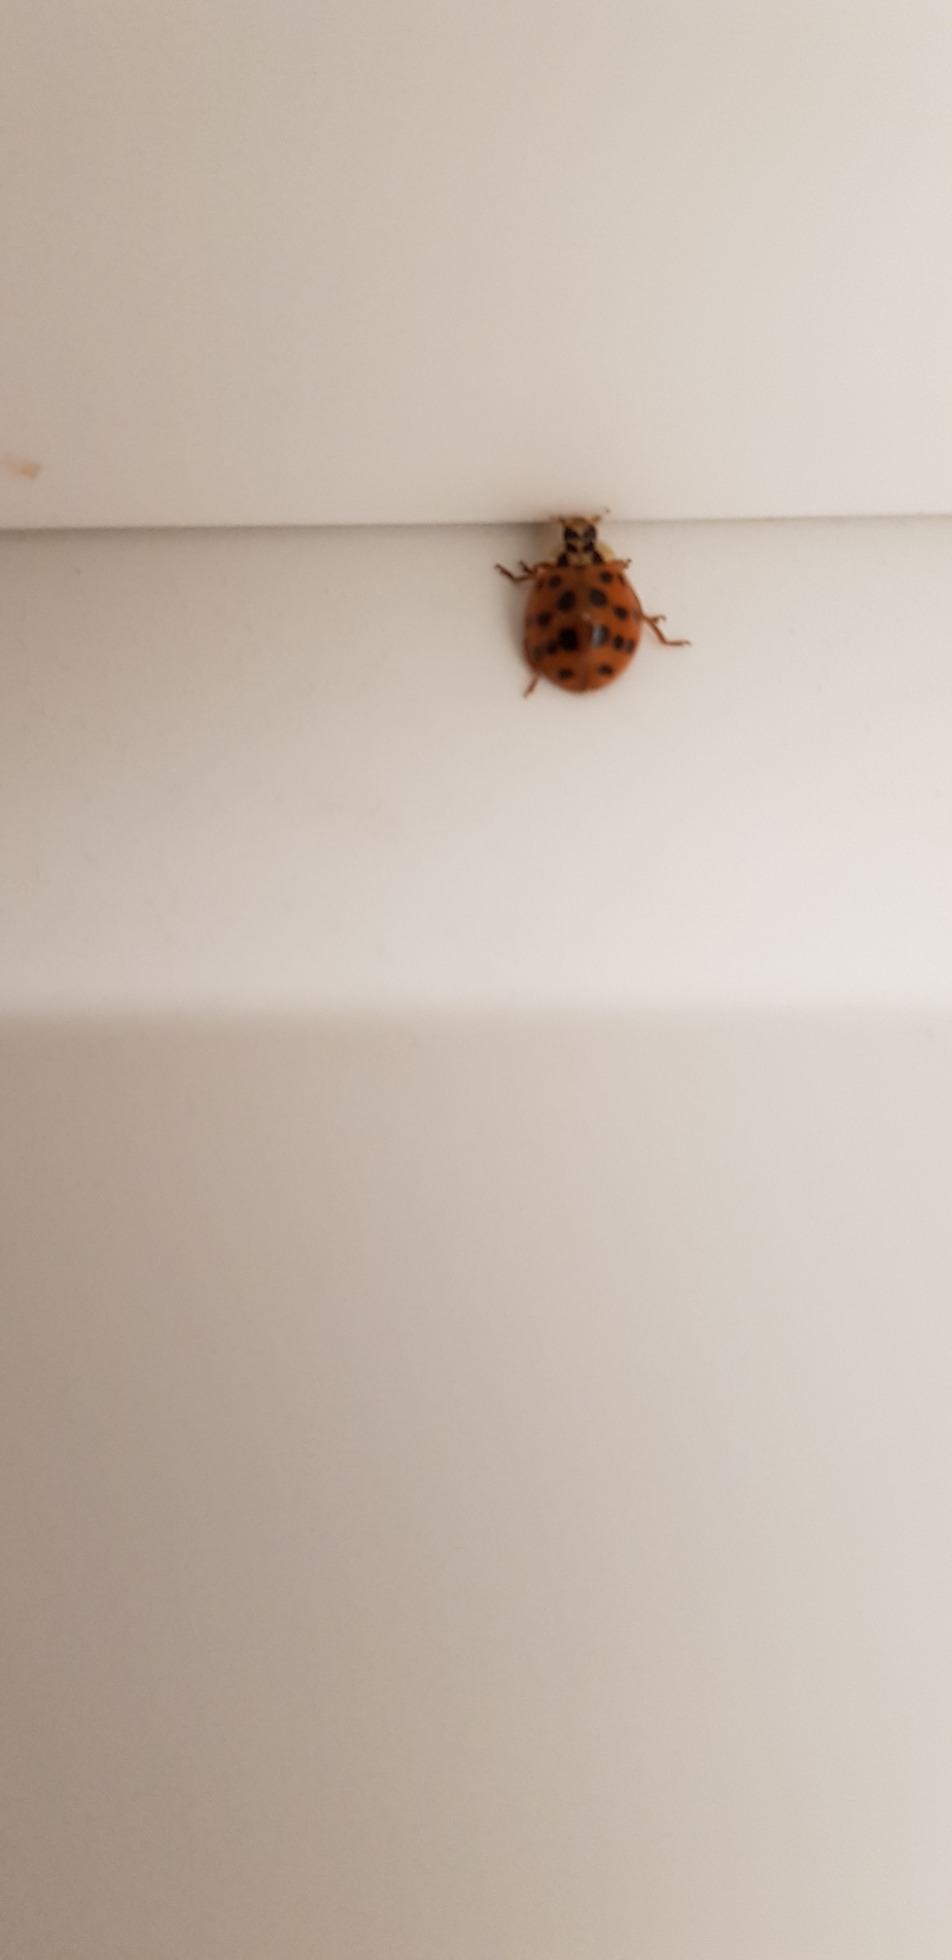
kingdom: Animalia
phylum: Arthropoda
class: Insecta
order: Coleoptera
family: Coccinellidae
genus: Harmonia
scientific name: Harmonia axyridis
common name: Harlekinmariehøne
